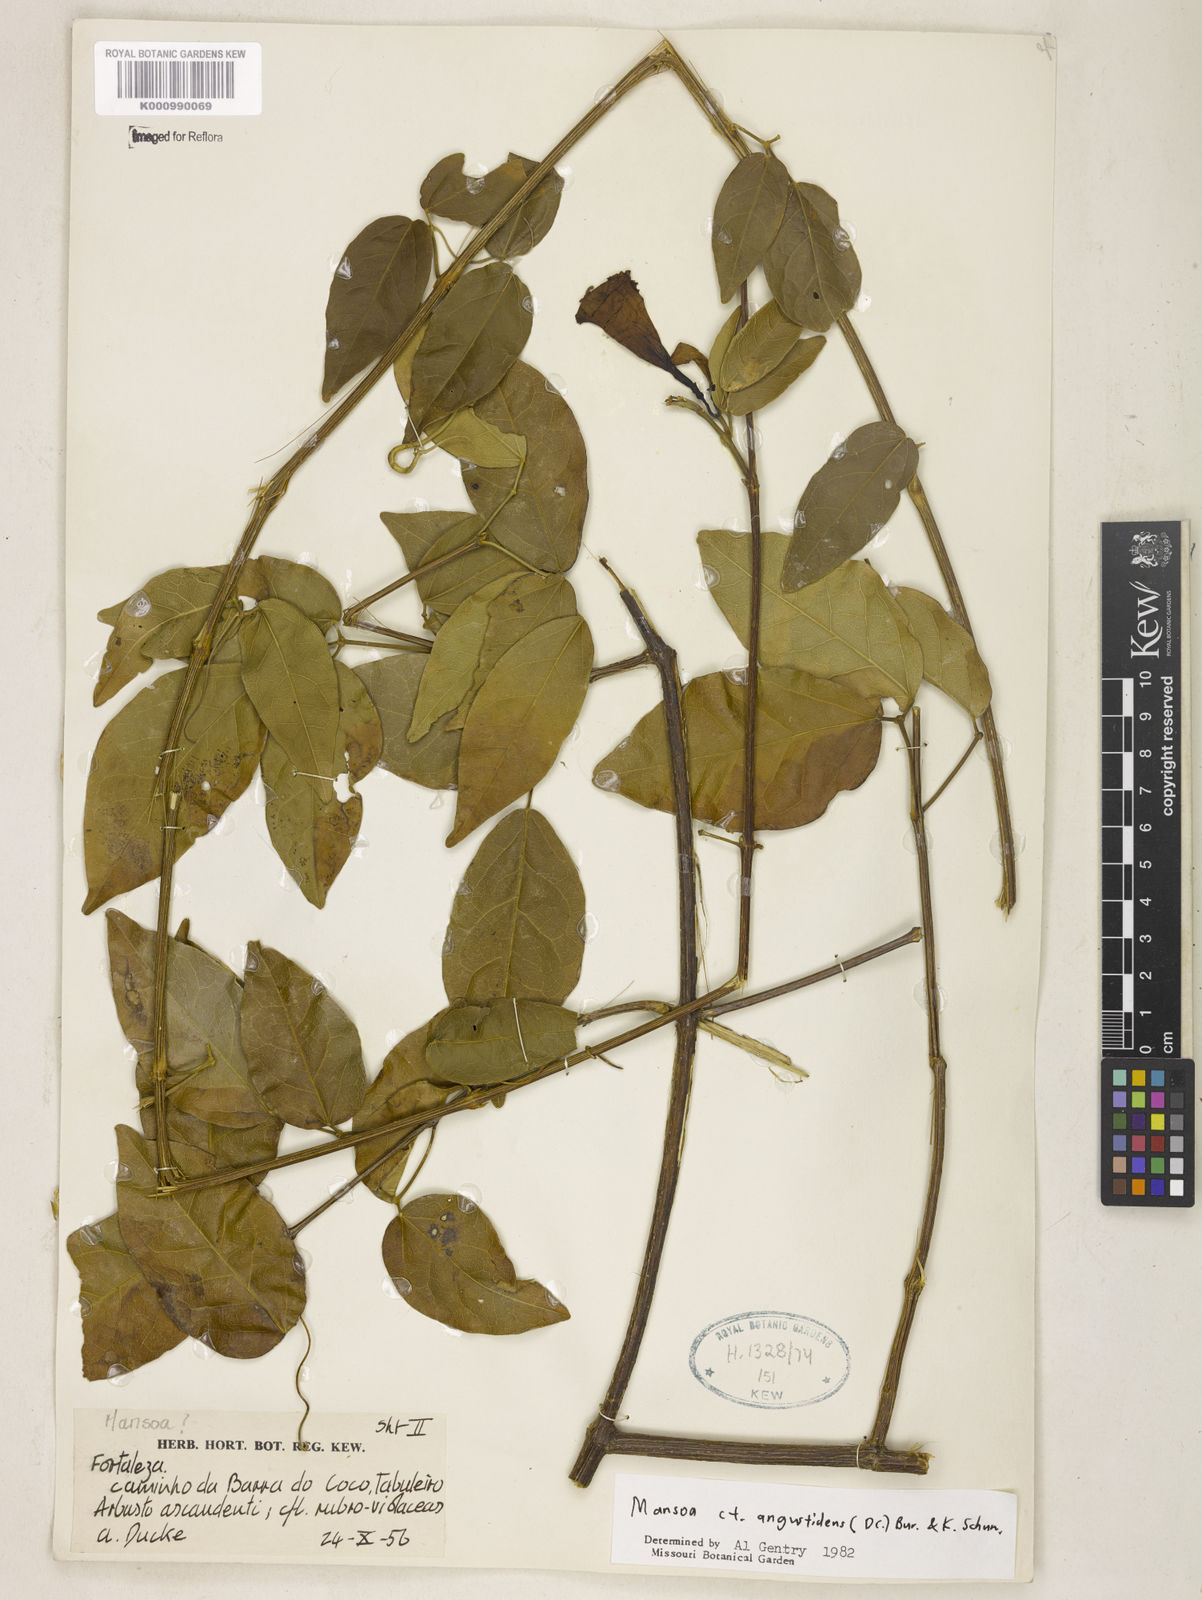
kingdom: Plantae
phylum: Tracheophyta
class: Magnoliopsida
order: Lamiales
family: Bignoniaceae
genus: Mansoa
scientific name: Mansoa angustidens
